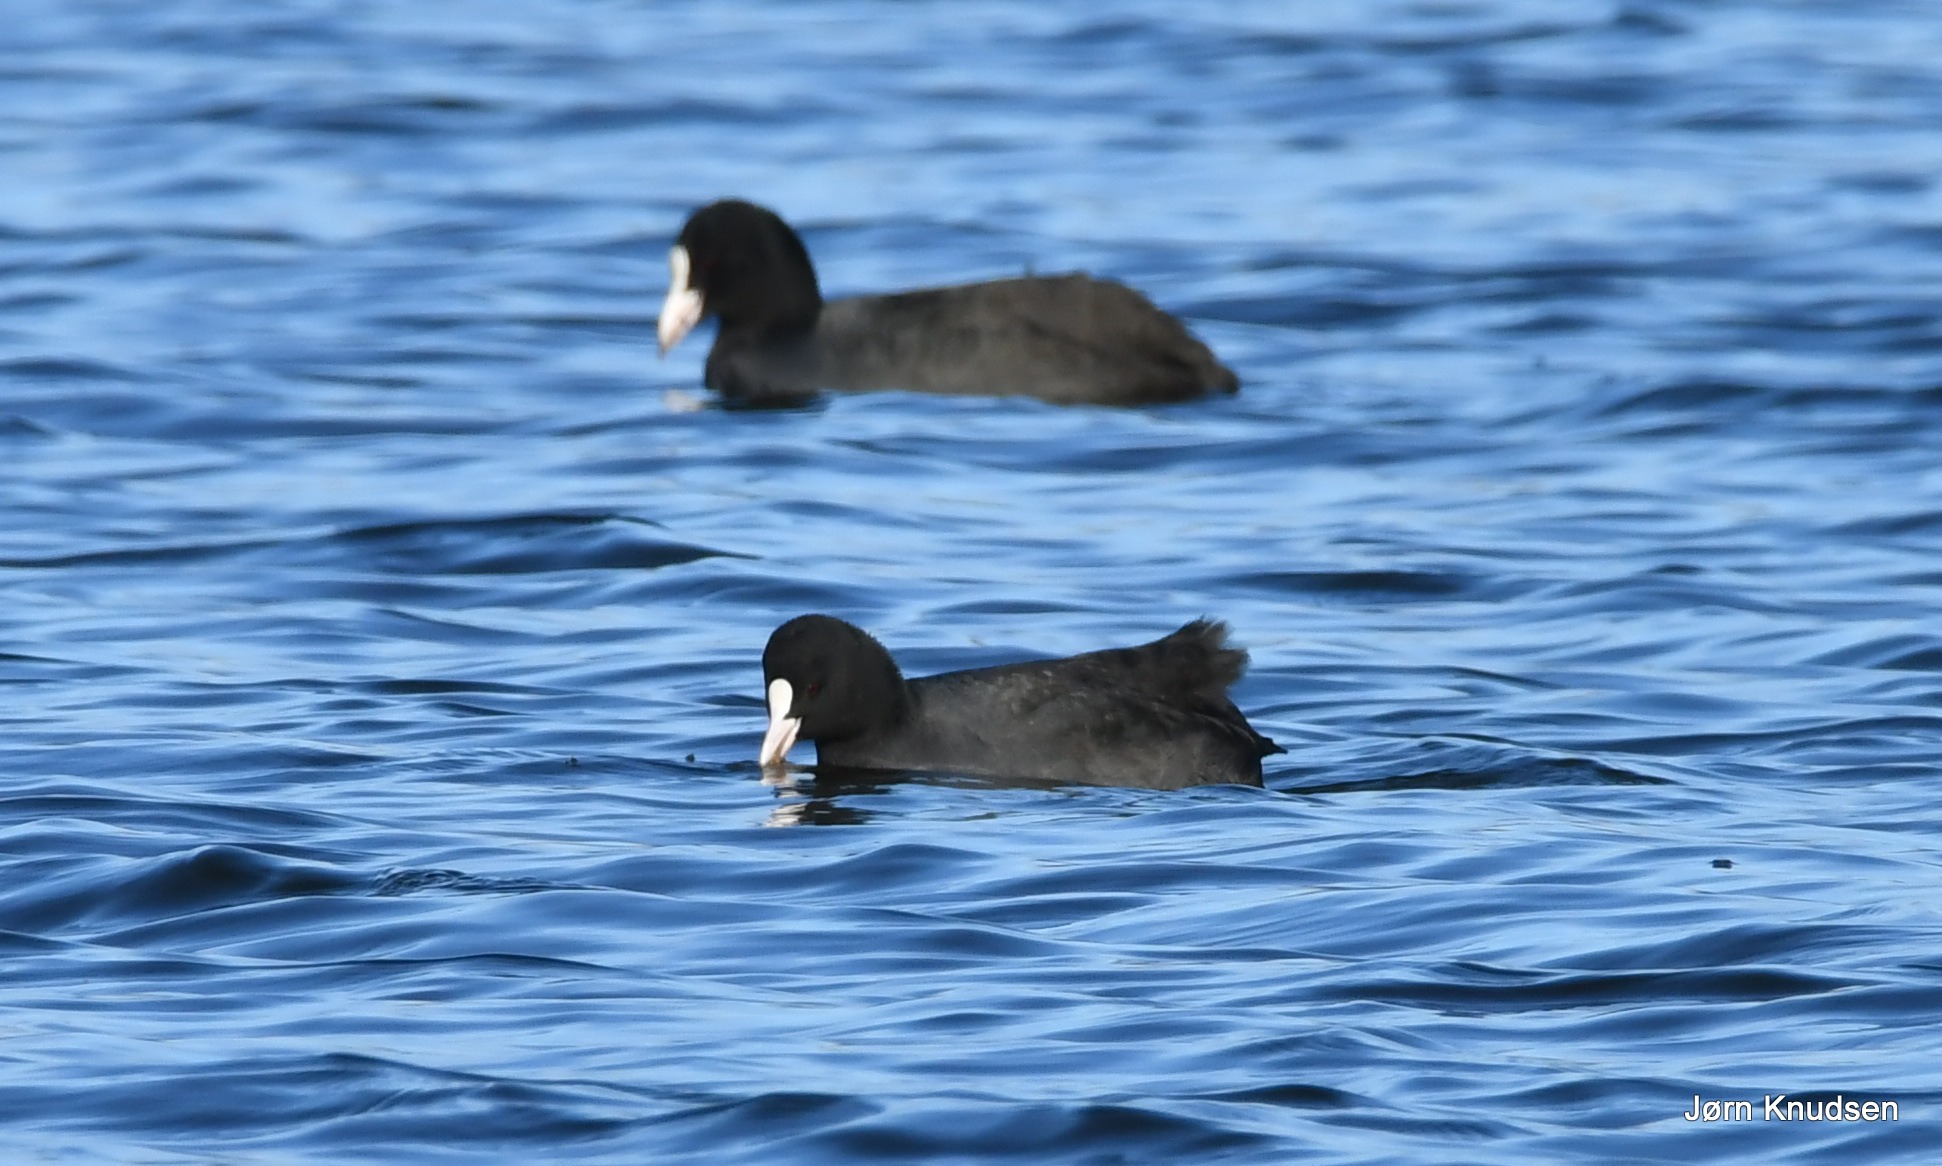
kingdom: Animalia
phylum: Chordata
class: Aves
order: Gruiformes
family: Rallidae
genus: Fulica
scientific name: Fulica atra
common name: Blishøne
